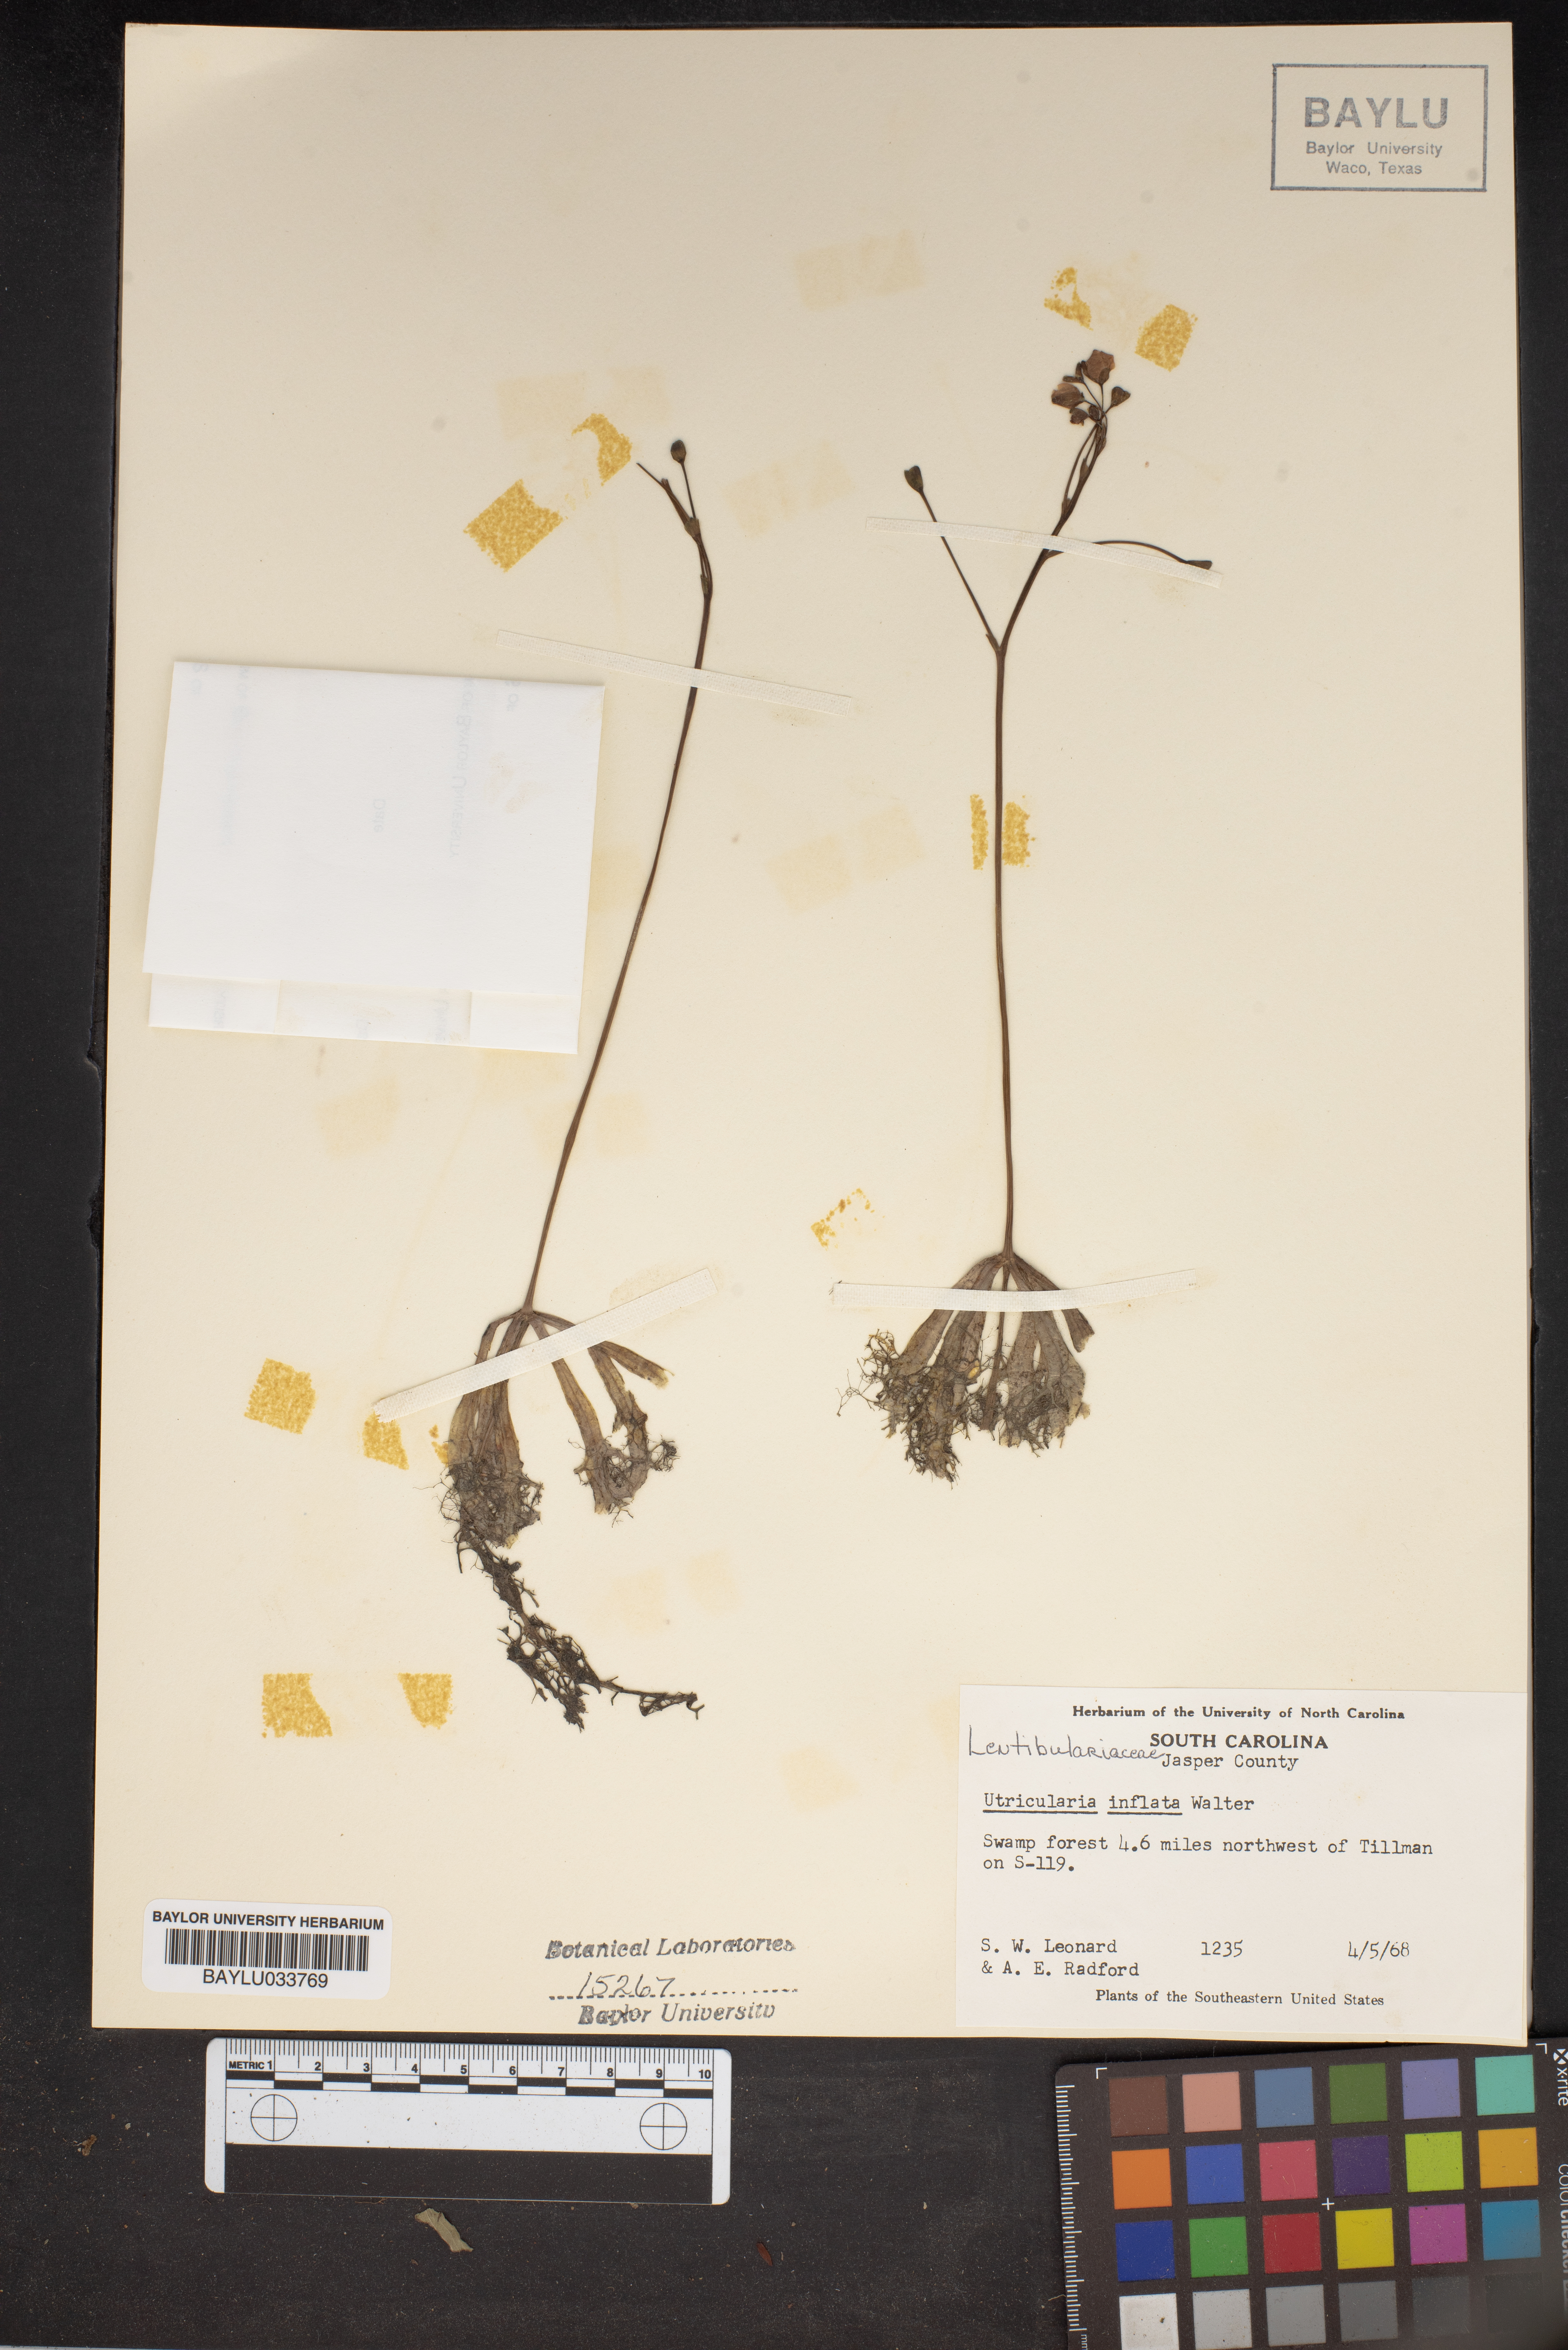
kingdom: Plantae
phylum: Tracheophyta
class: Magnoliopsida
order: Lamiales
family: Lentibulariaceae
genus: Utricularia
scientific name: Utricularia inflata
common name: Floating bladderwort
